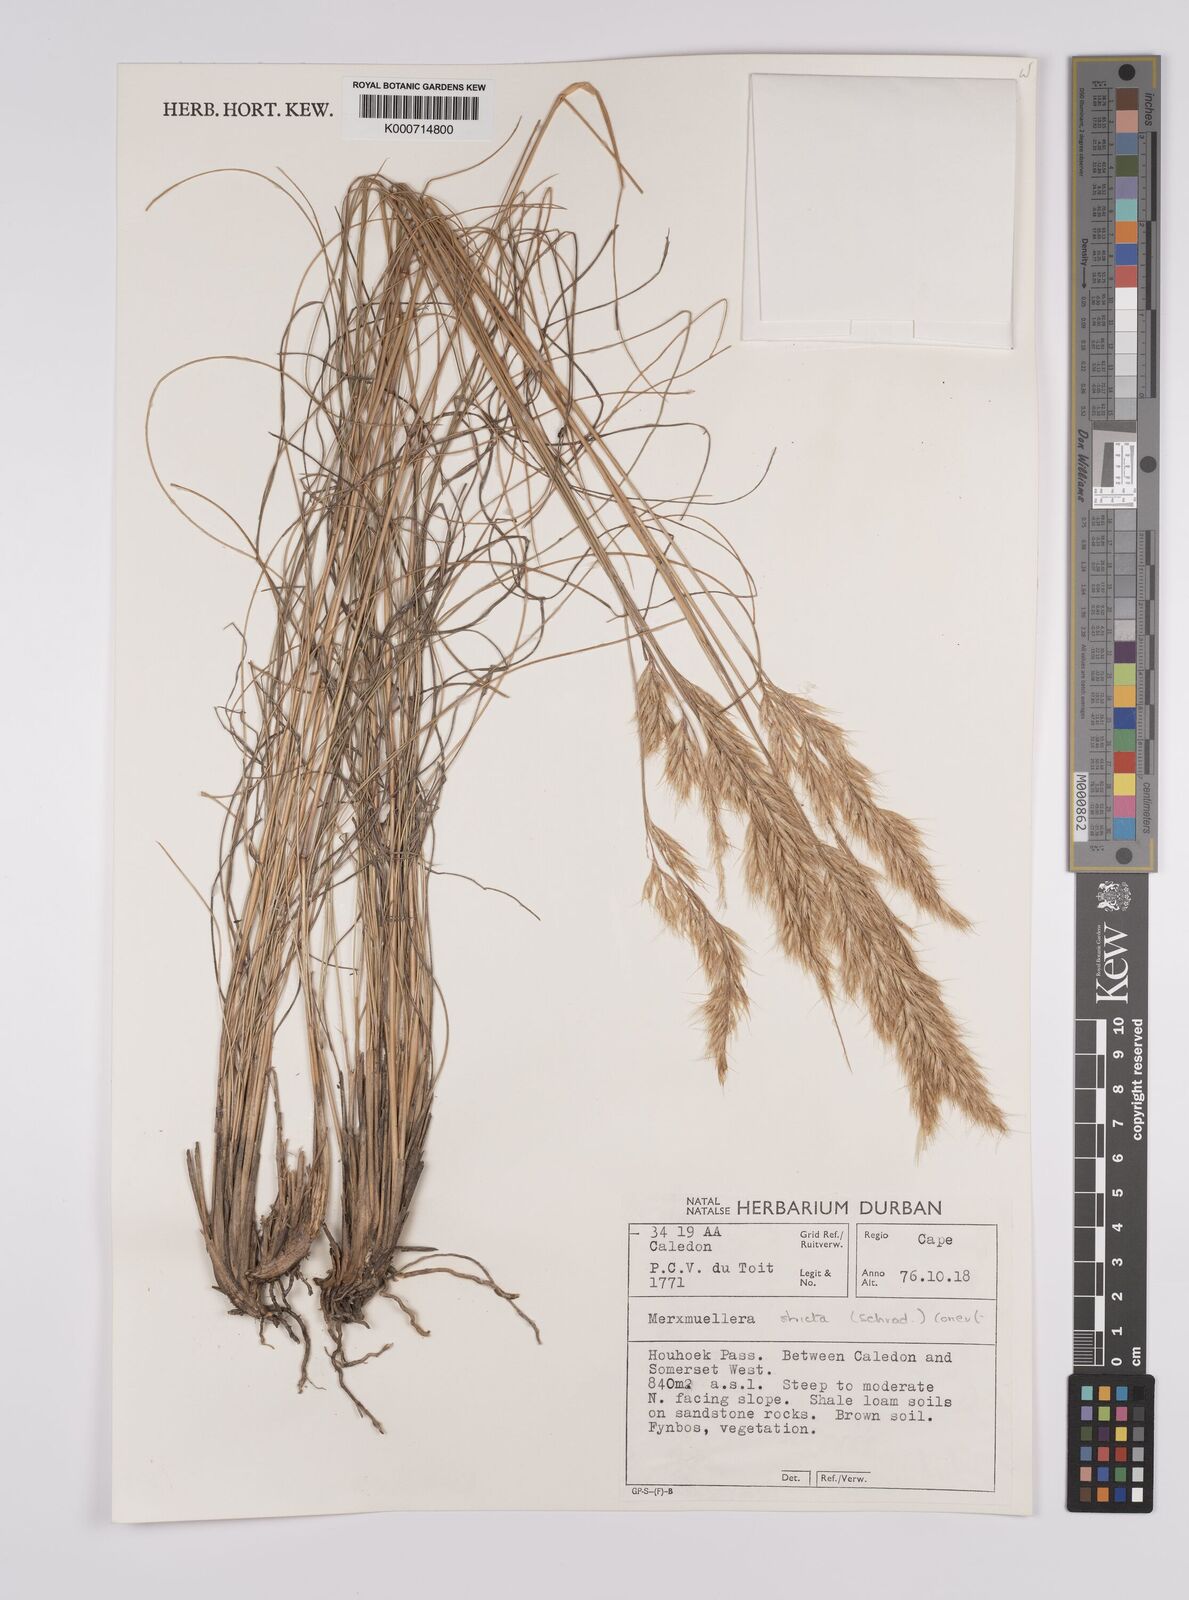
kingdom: Plantae
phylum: Tracheophyta
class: Liliopsida
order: Poales
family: Poaceae
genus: Rytidosperma
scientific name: Rytidosperma
